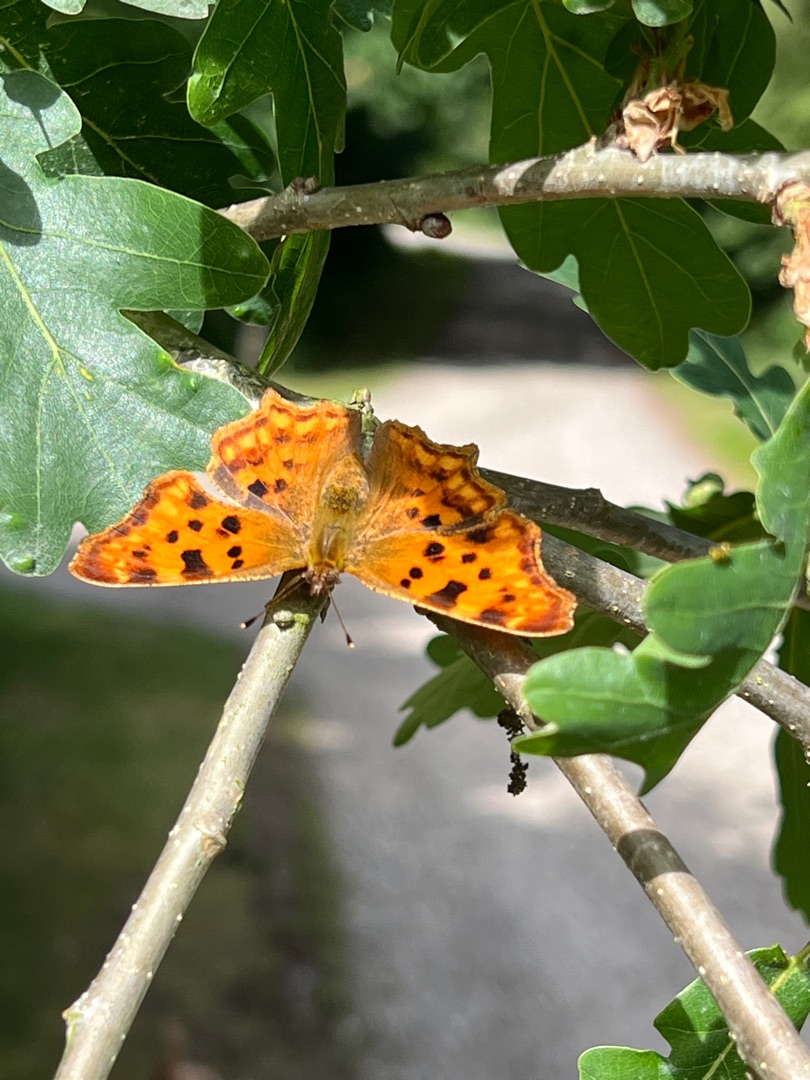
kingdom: Animalia
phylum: Arthropoda
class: Insecta
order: Lepidoptera
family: Nymphalidae
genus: Polygonia
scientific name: Polygonia c-album
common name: Det hvide C
